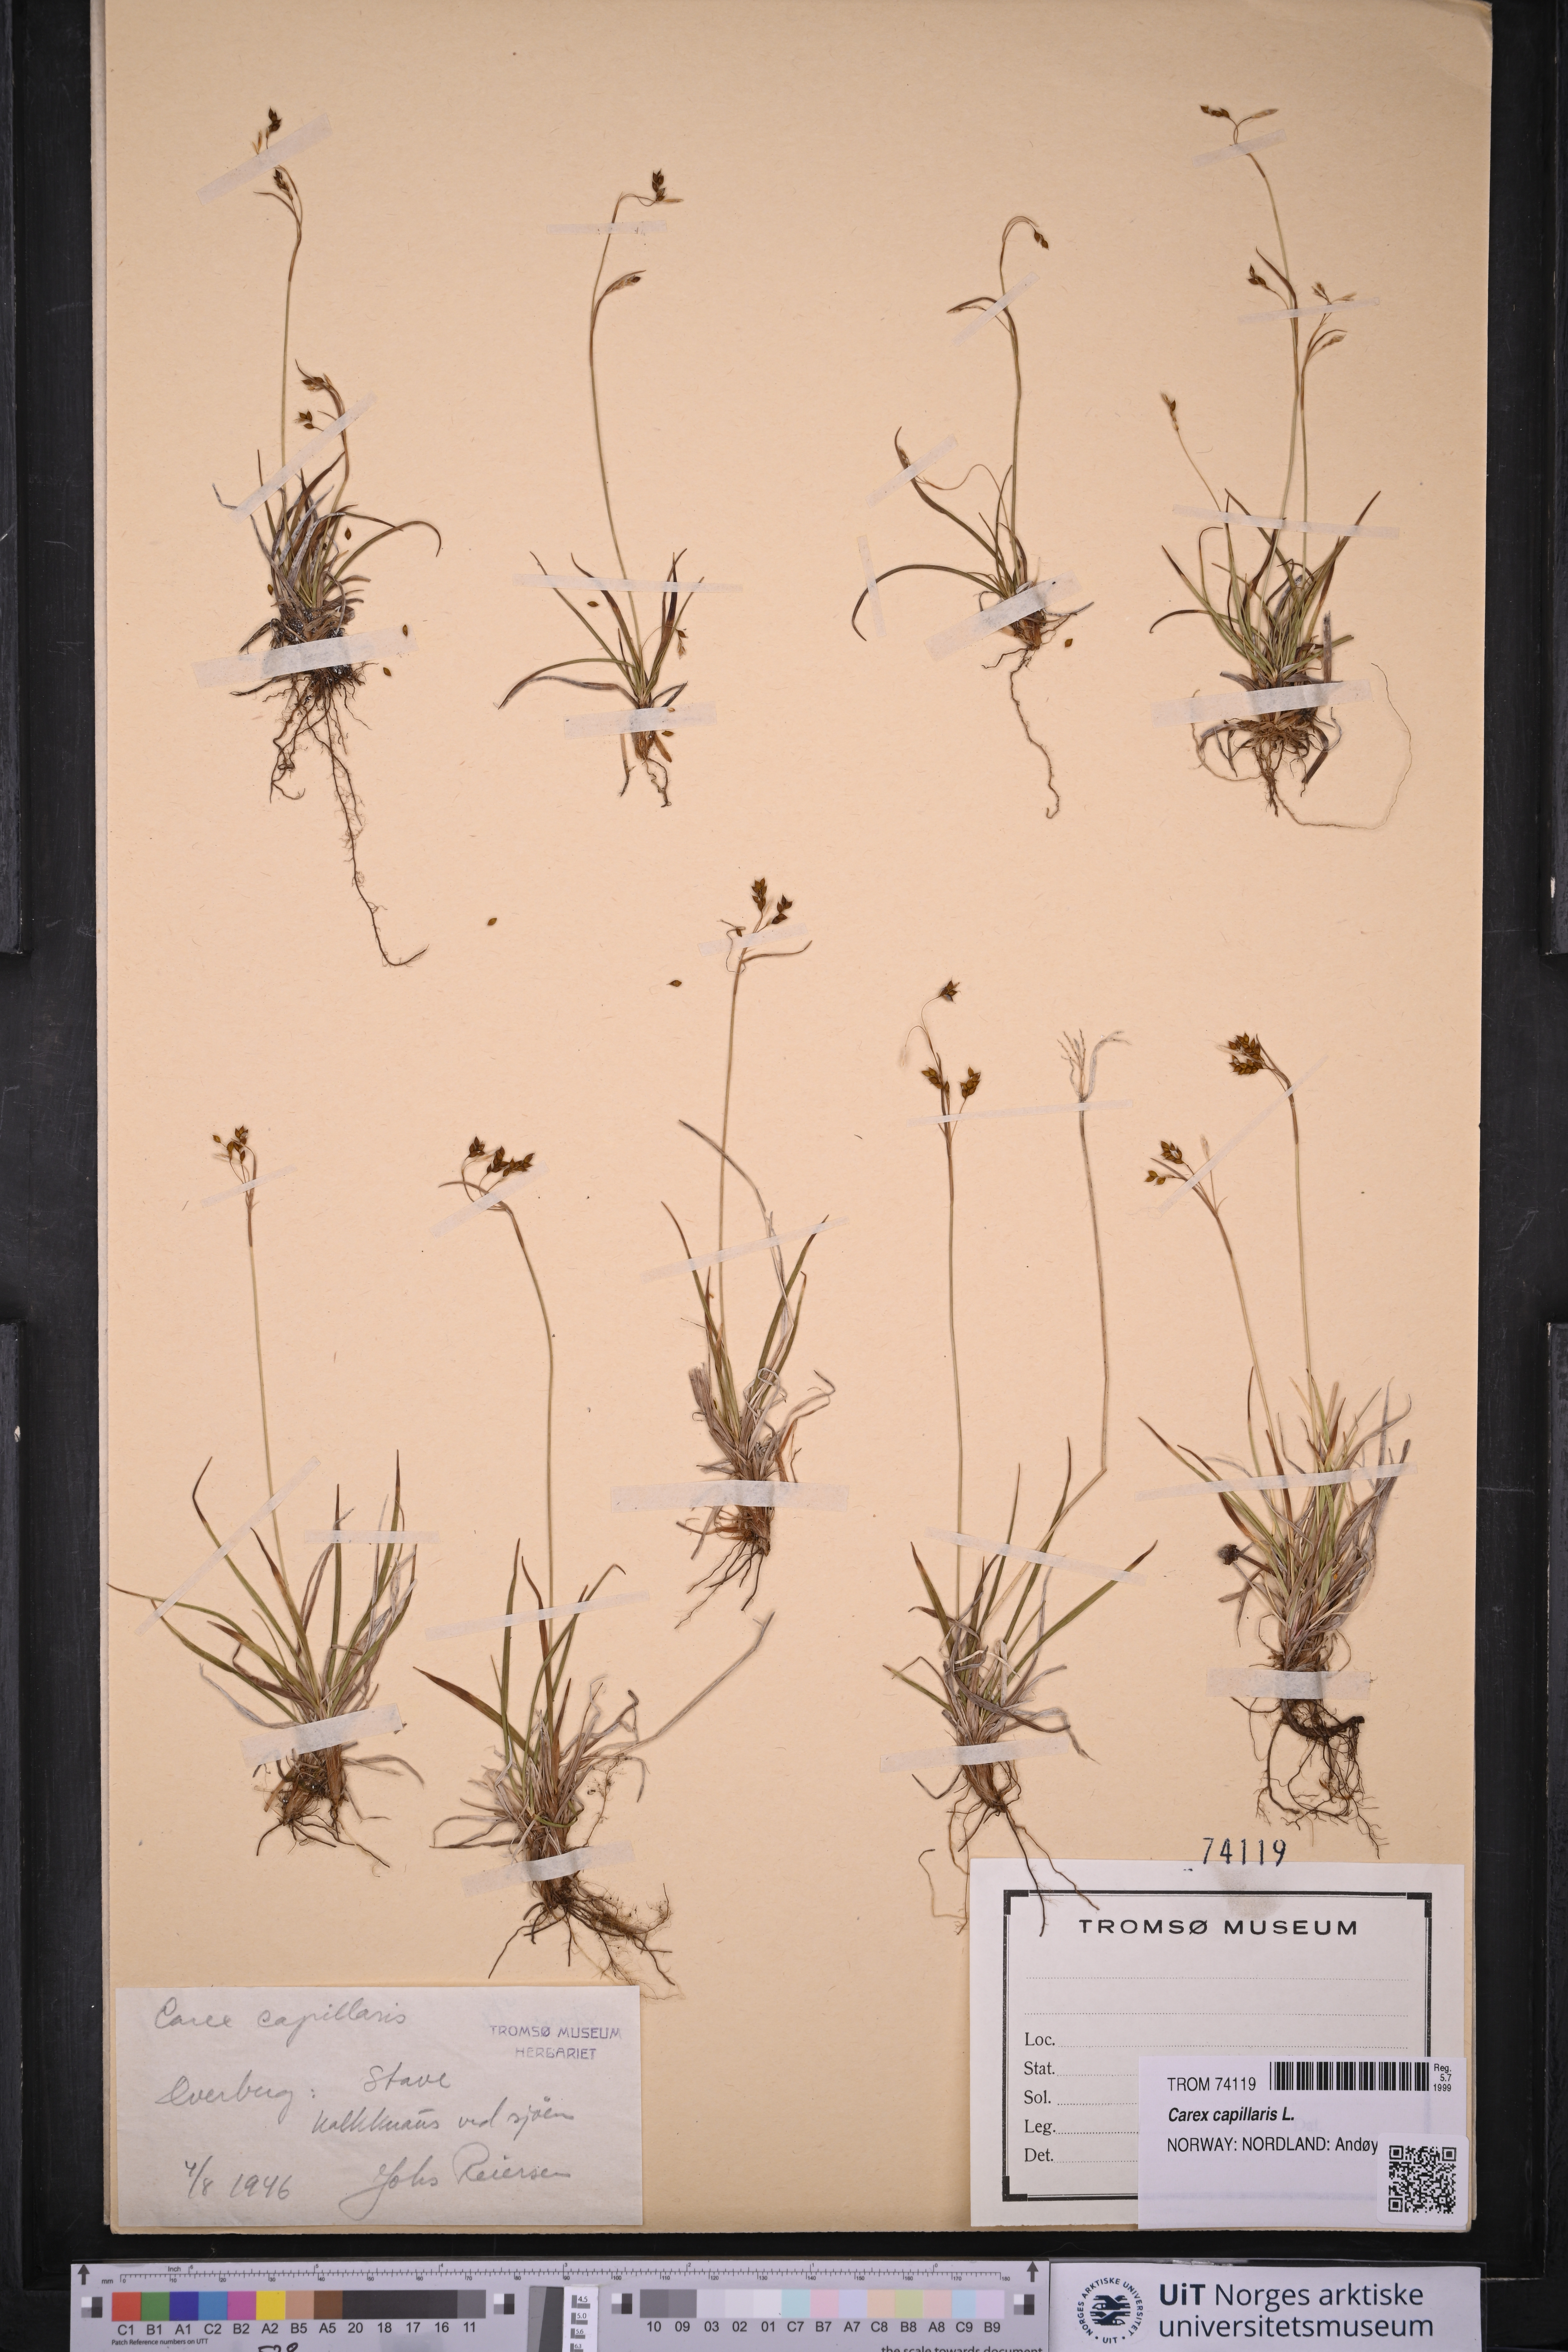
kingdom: Plantae
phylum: Tracheophyta
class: Liliopsida
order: Poales
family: Cyperaceae
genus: Carex
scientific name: Carex capillaris
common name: Hair sedge
